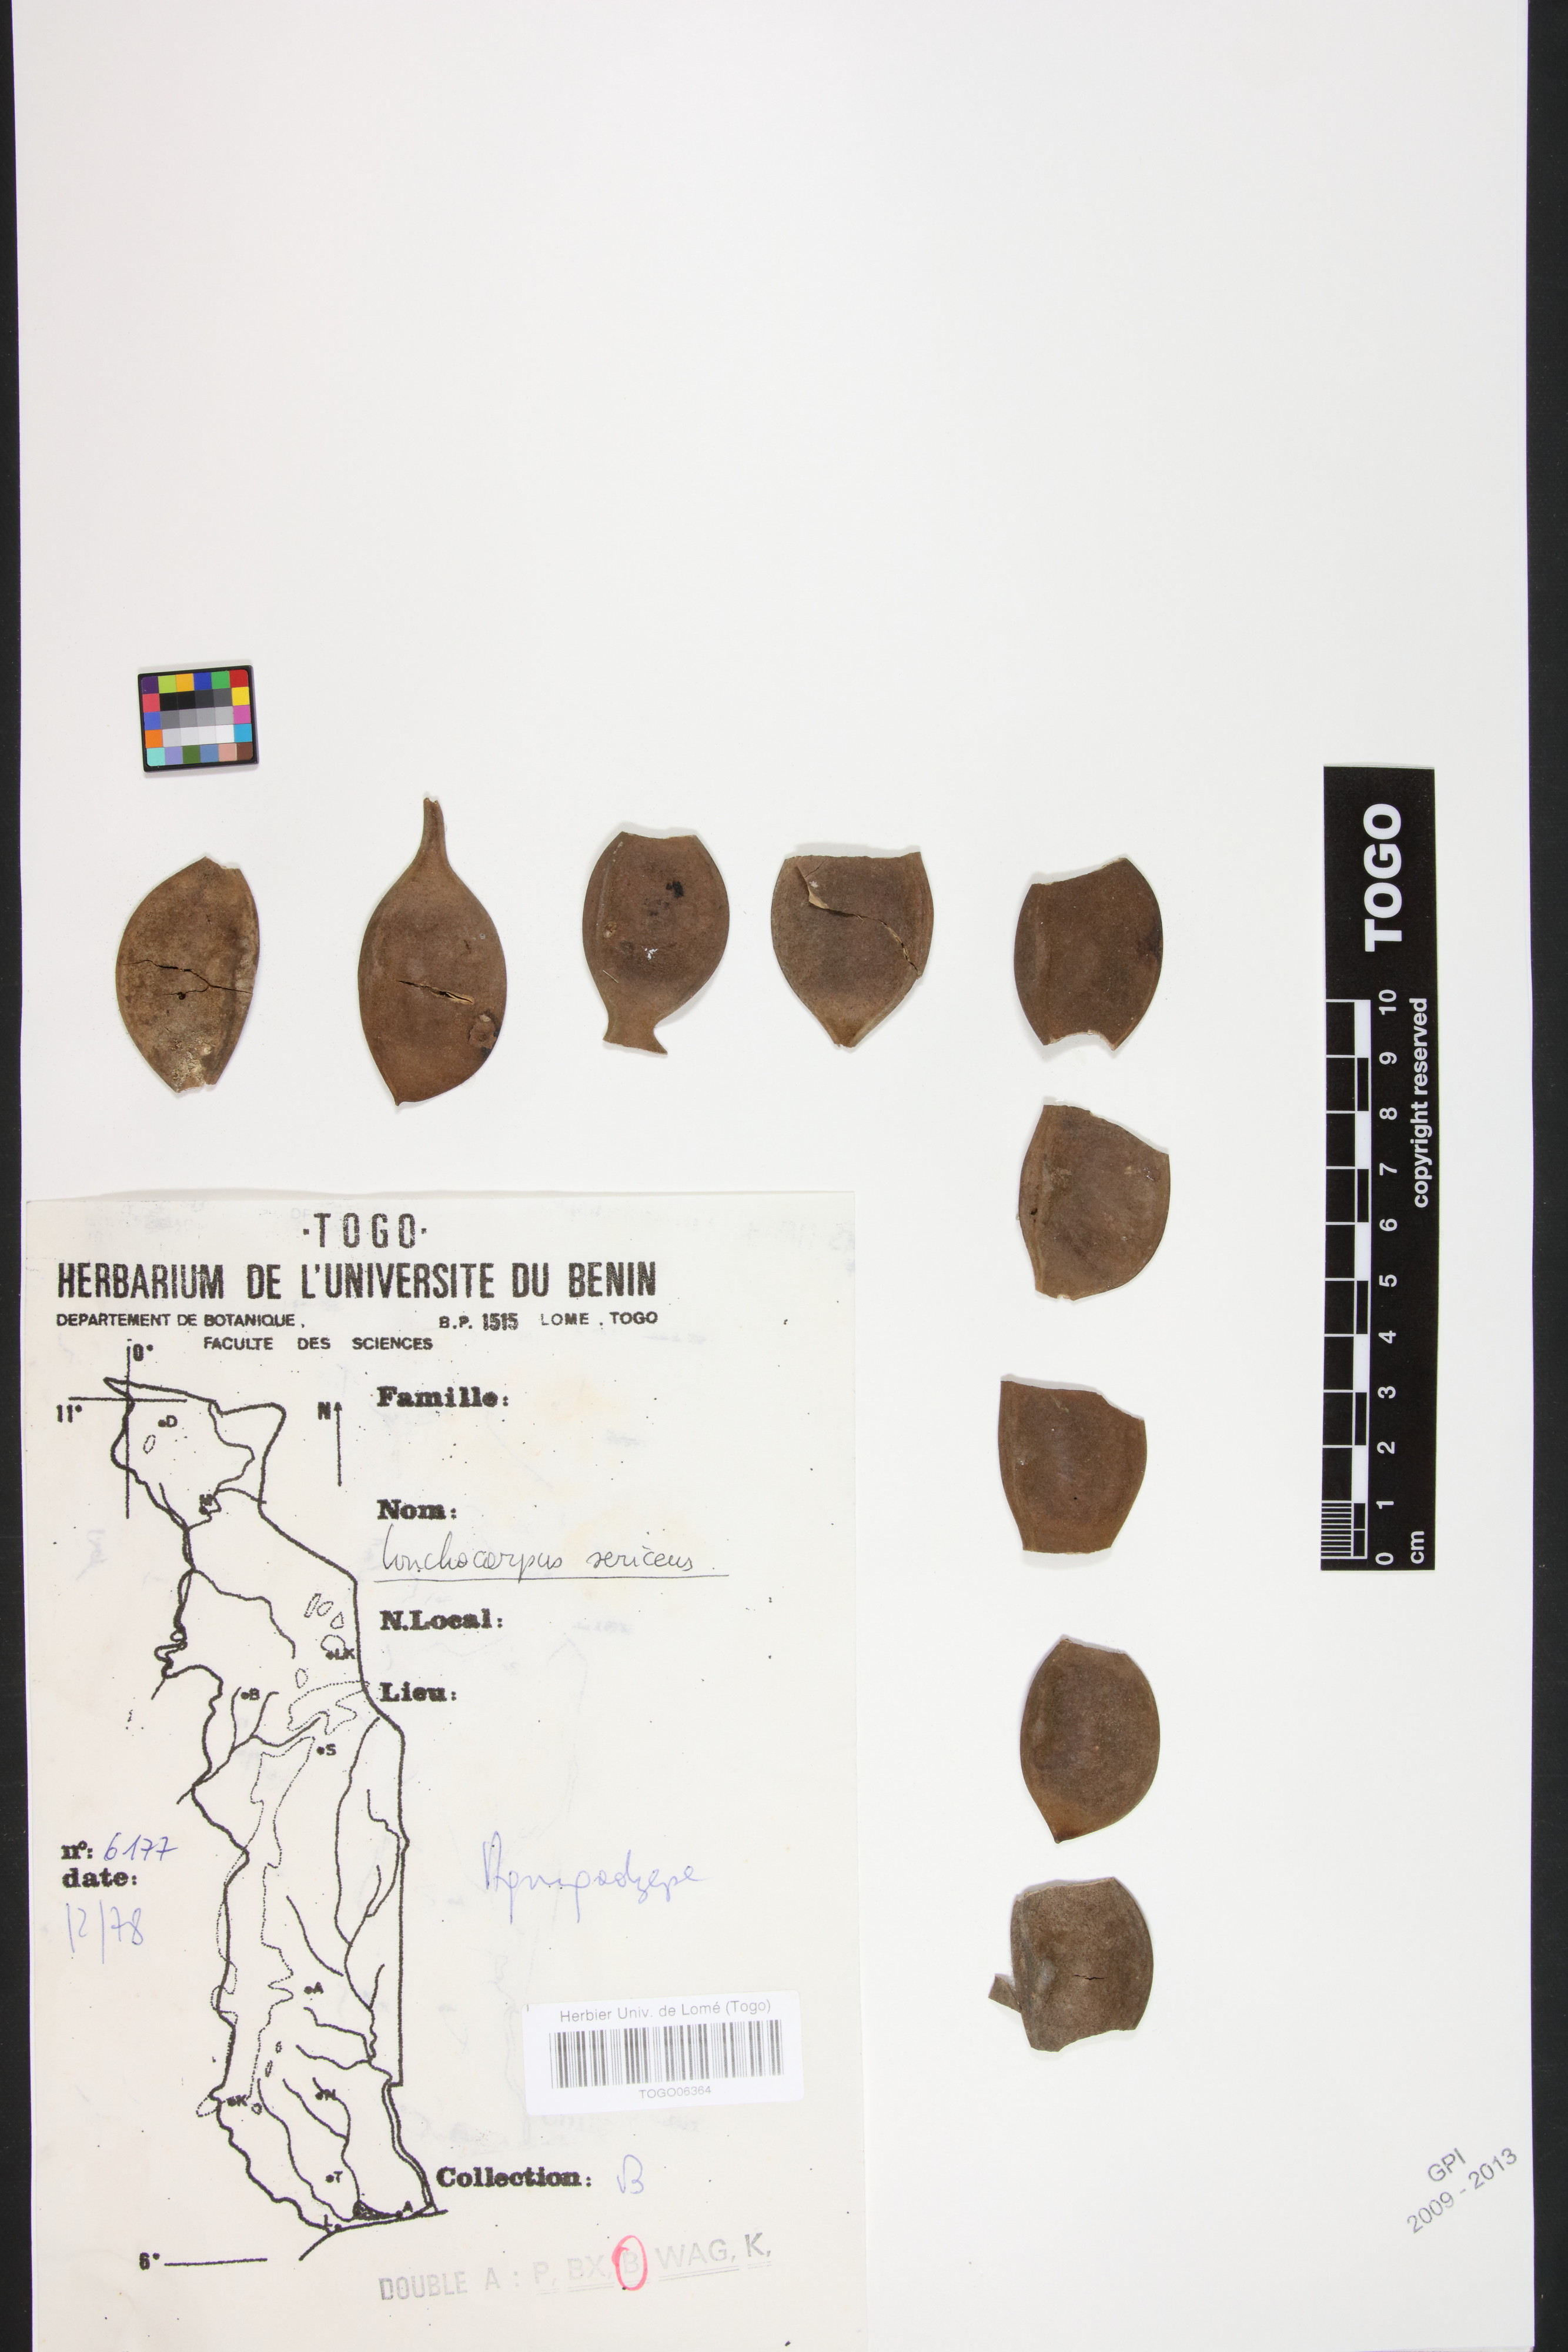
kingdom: Plantae
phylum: Tracheophyta
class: Magnoliopsida
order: Fabales
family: Fabaceae
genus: Lonchocarpus
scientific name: Lonchocarpus sericeus
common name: Savonette
